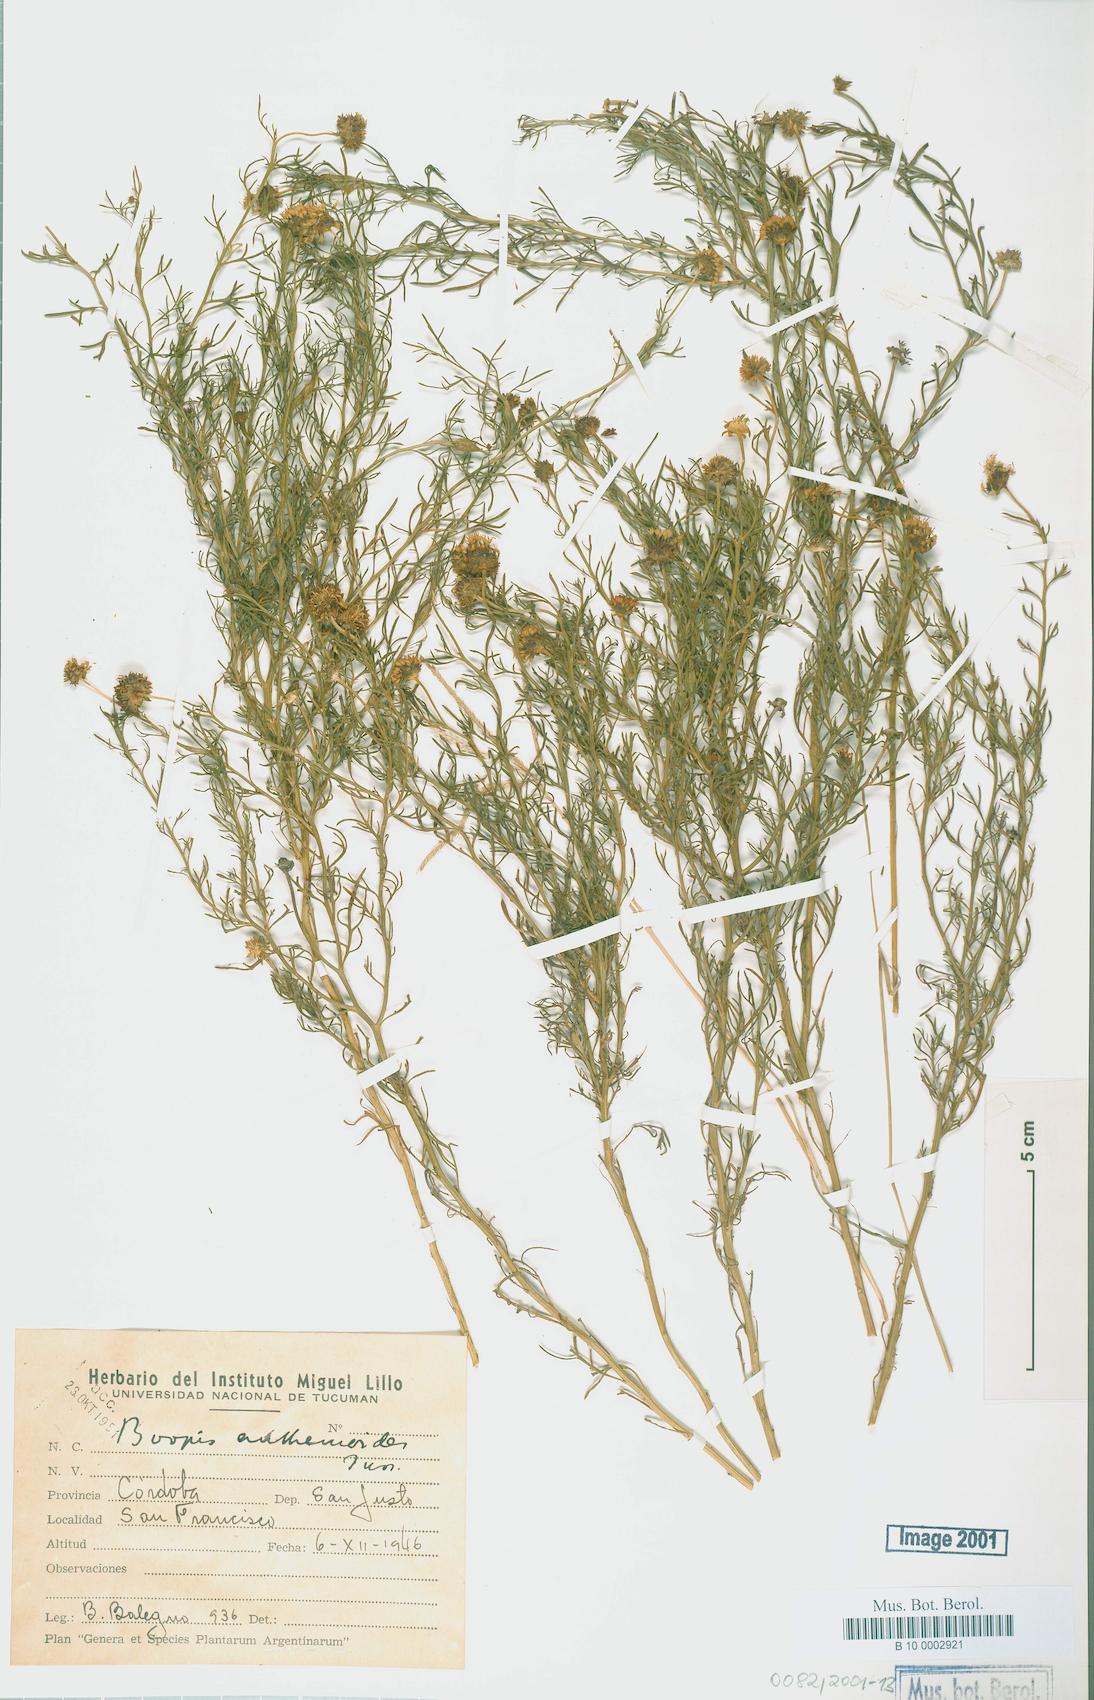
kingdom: Plantae
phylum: Tracheophyta
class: Magnoliopsida
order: Asterales
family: Calyceraceae
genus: Boopis
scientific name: Boopis anthemoides
